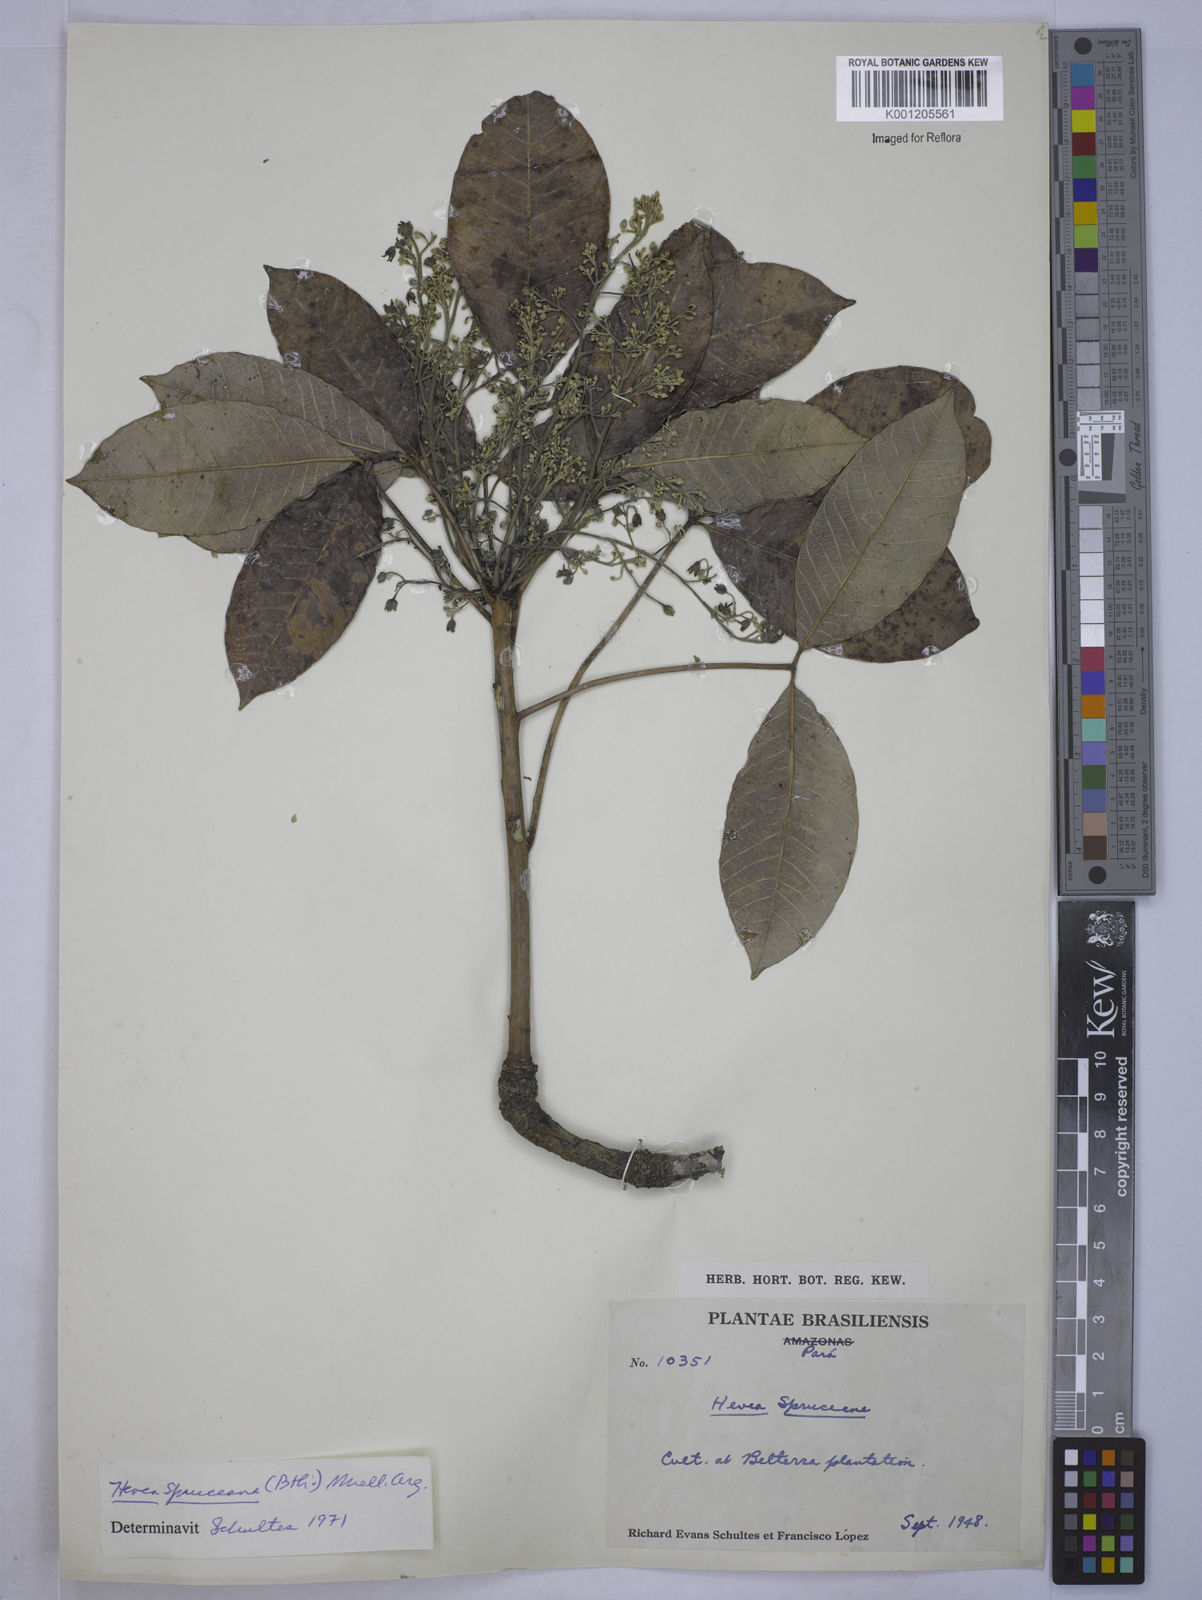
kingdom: Plantae
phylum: Tracheophyta
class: Magnoliopsida
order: Malpighiales
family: Euphorbiaceae
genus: Hevea
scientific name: Hevea
